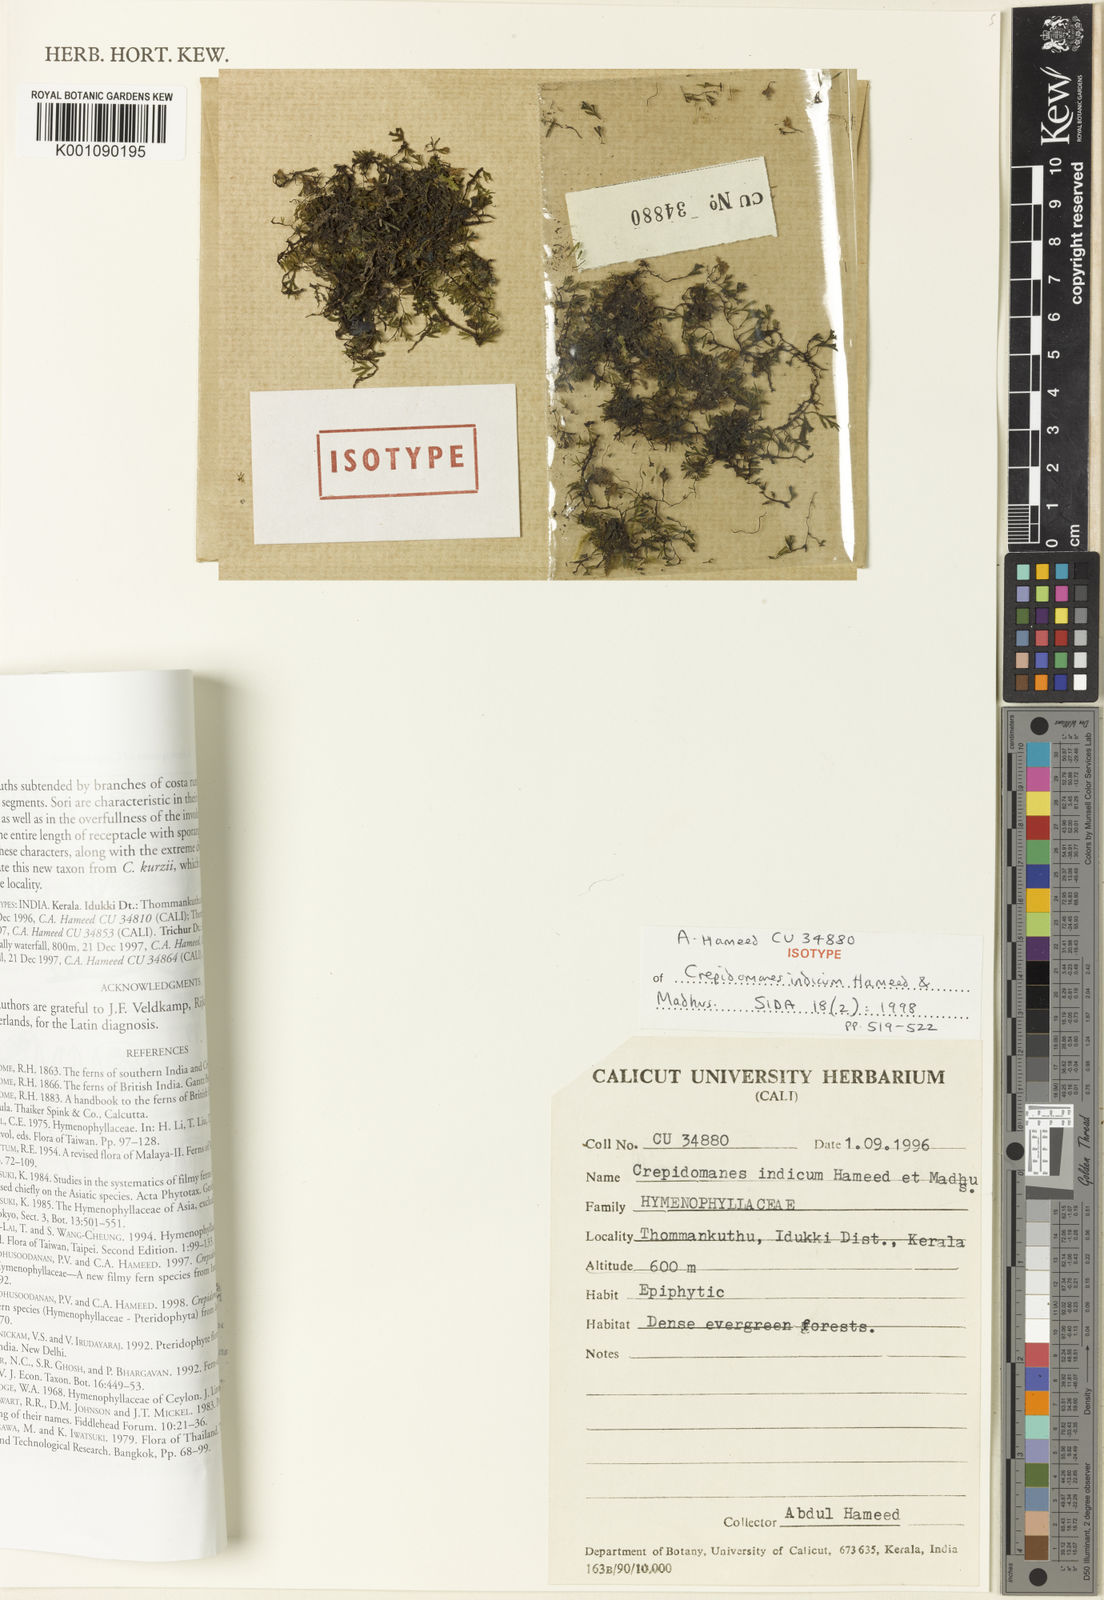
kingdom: Plantae
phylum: Tracheophyta
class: Polypodiopsida
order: Hymenophyllales
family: Hymenophyllaceae
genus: Crepidomanes
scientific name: Crepidomanes intramarginale
